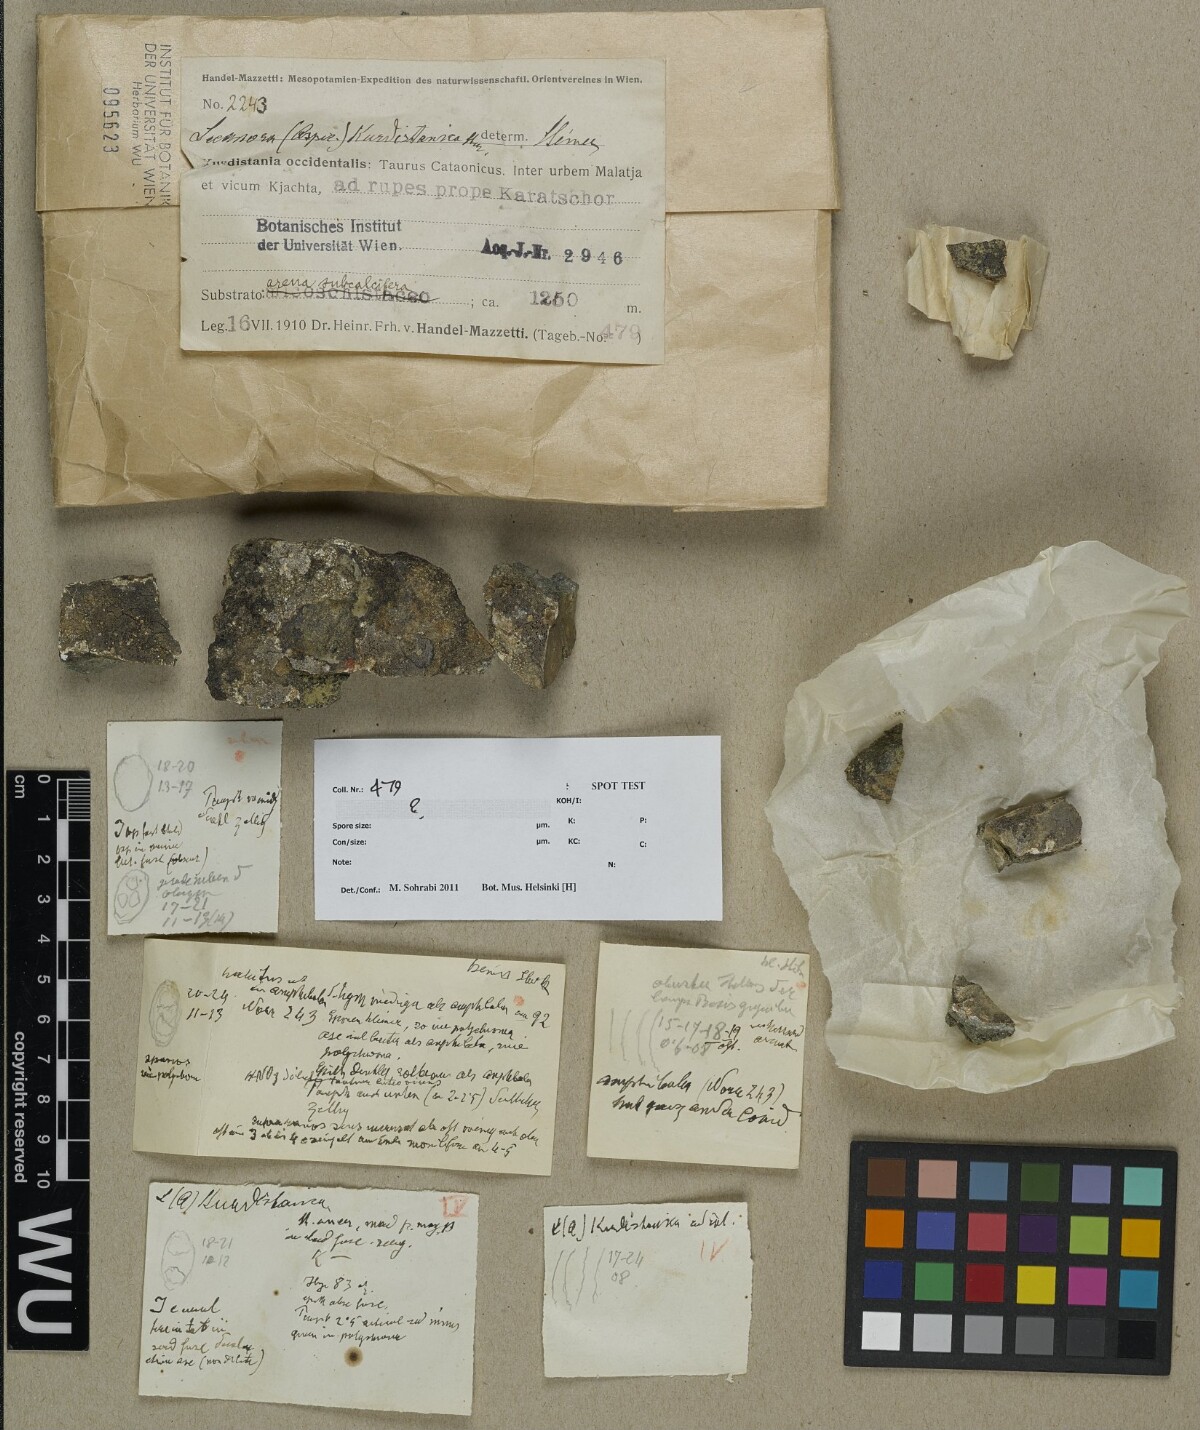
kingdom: Fungi
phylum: Ascomycota
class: Lecanoromycetes
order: Lecanorales
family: Lecanoraceae
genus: Lecanora
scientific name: Lecanora
